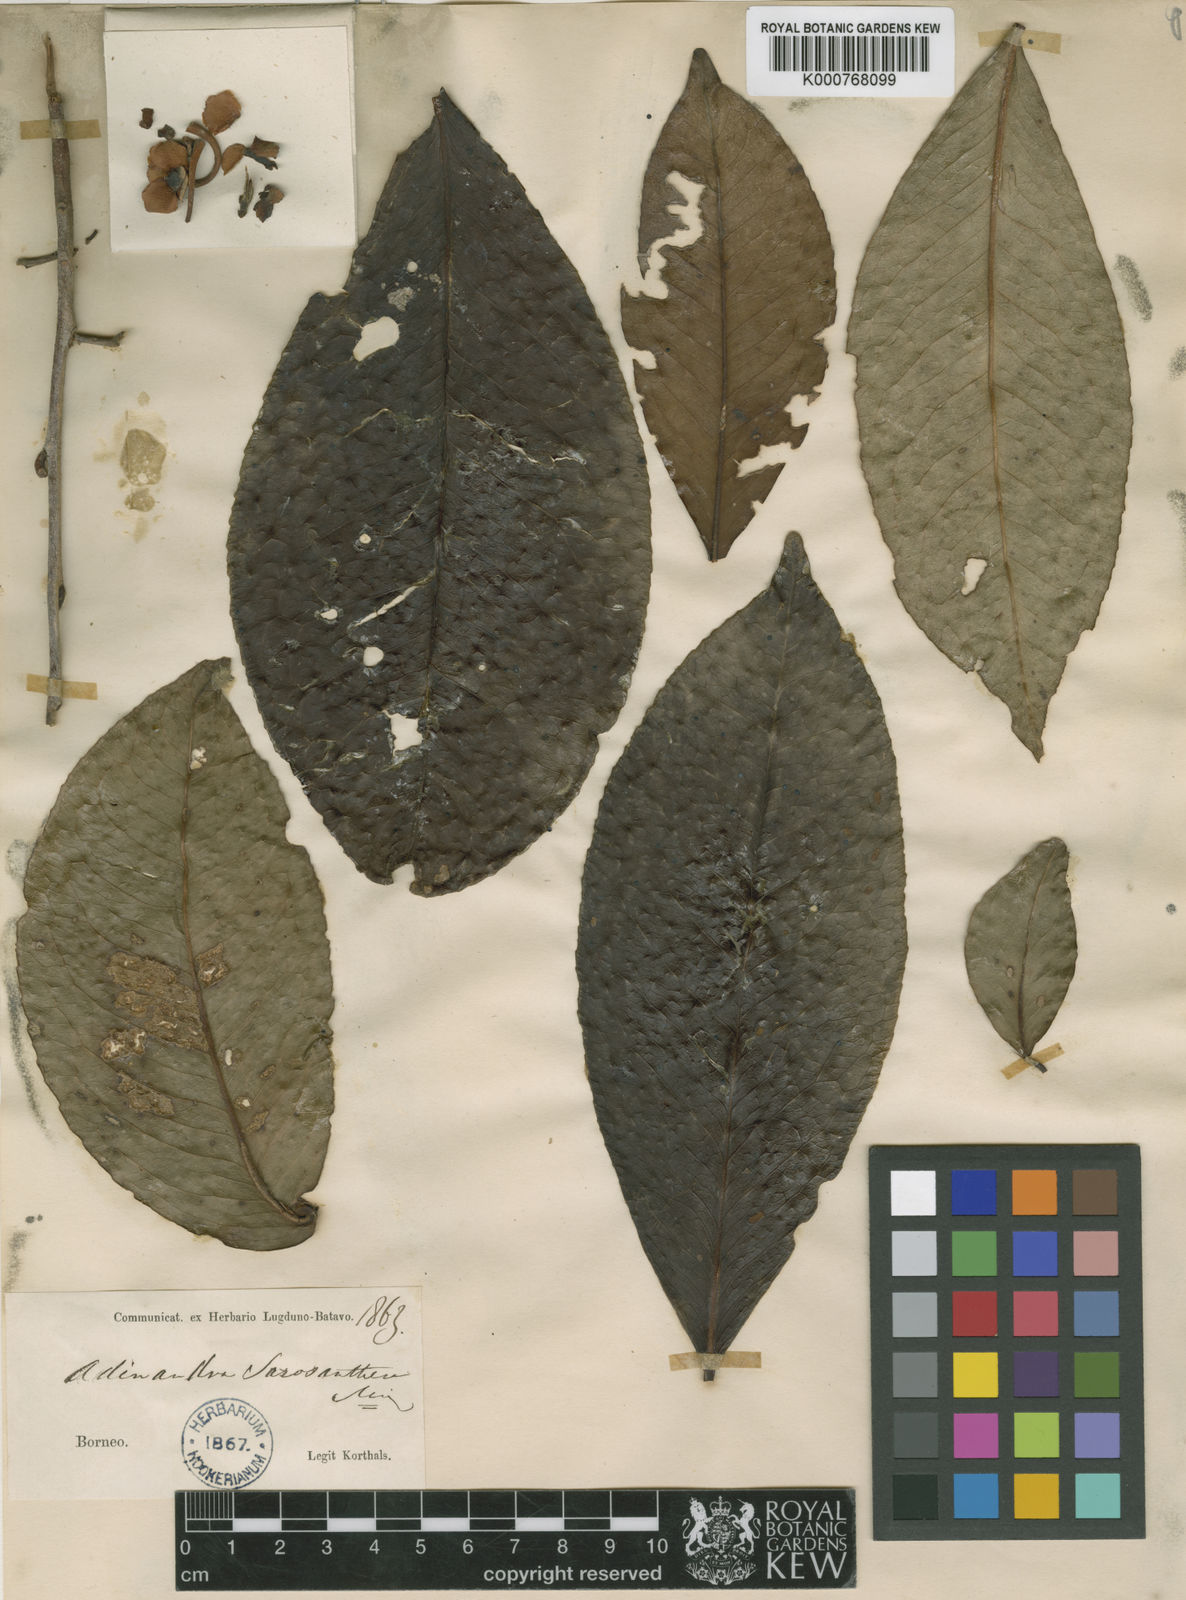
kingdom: Plantae
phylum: Tracheophyta
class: Magnoliopsida
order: Ericales
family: Pentaphylacaceae
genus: Adinandra
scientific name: Adinandra sarosanthera
